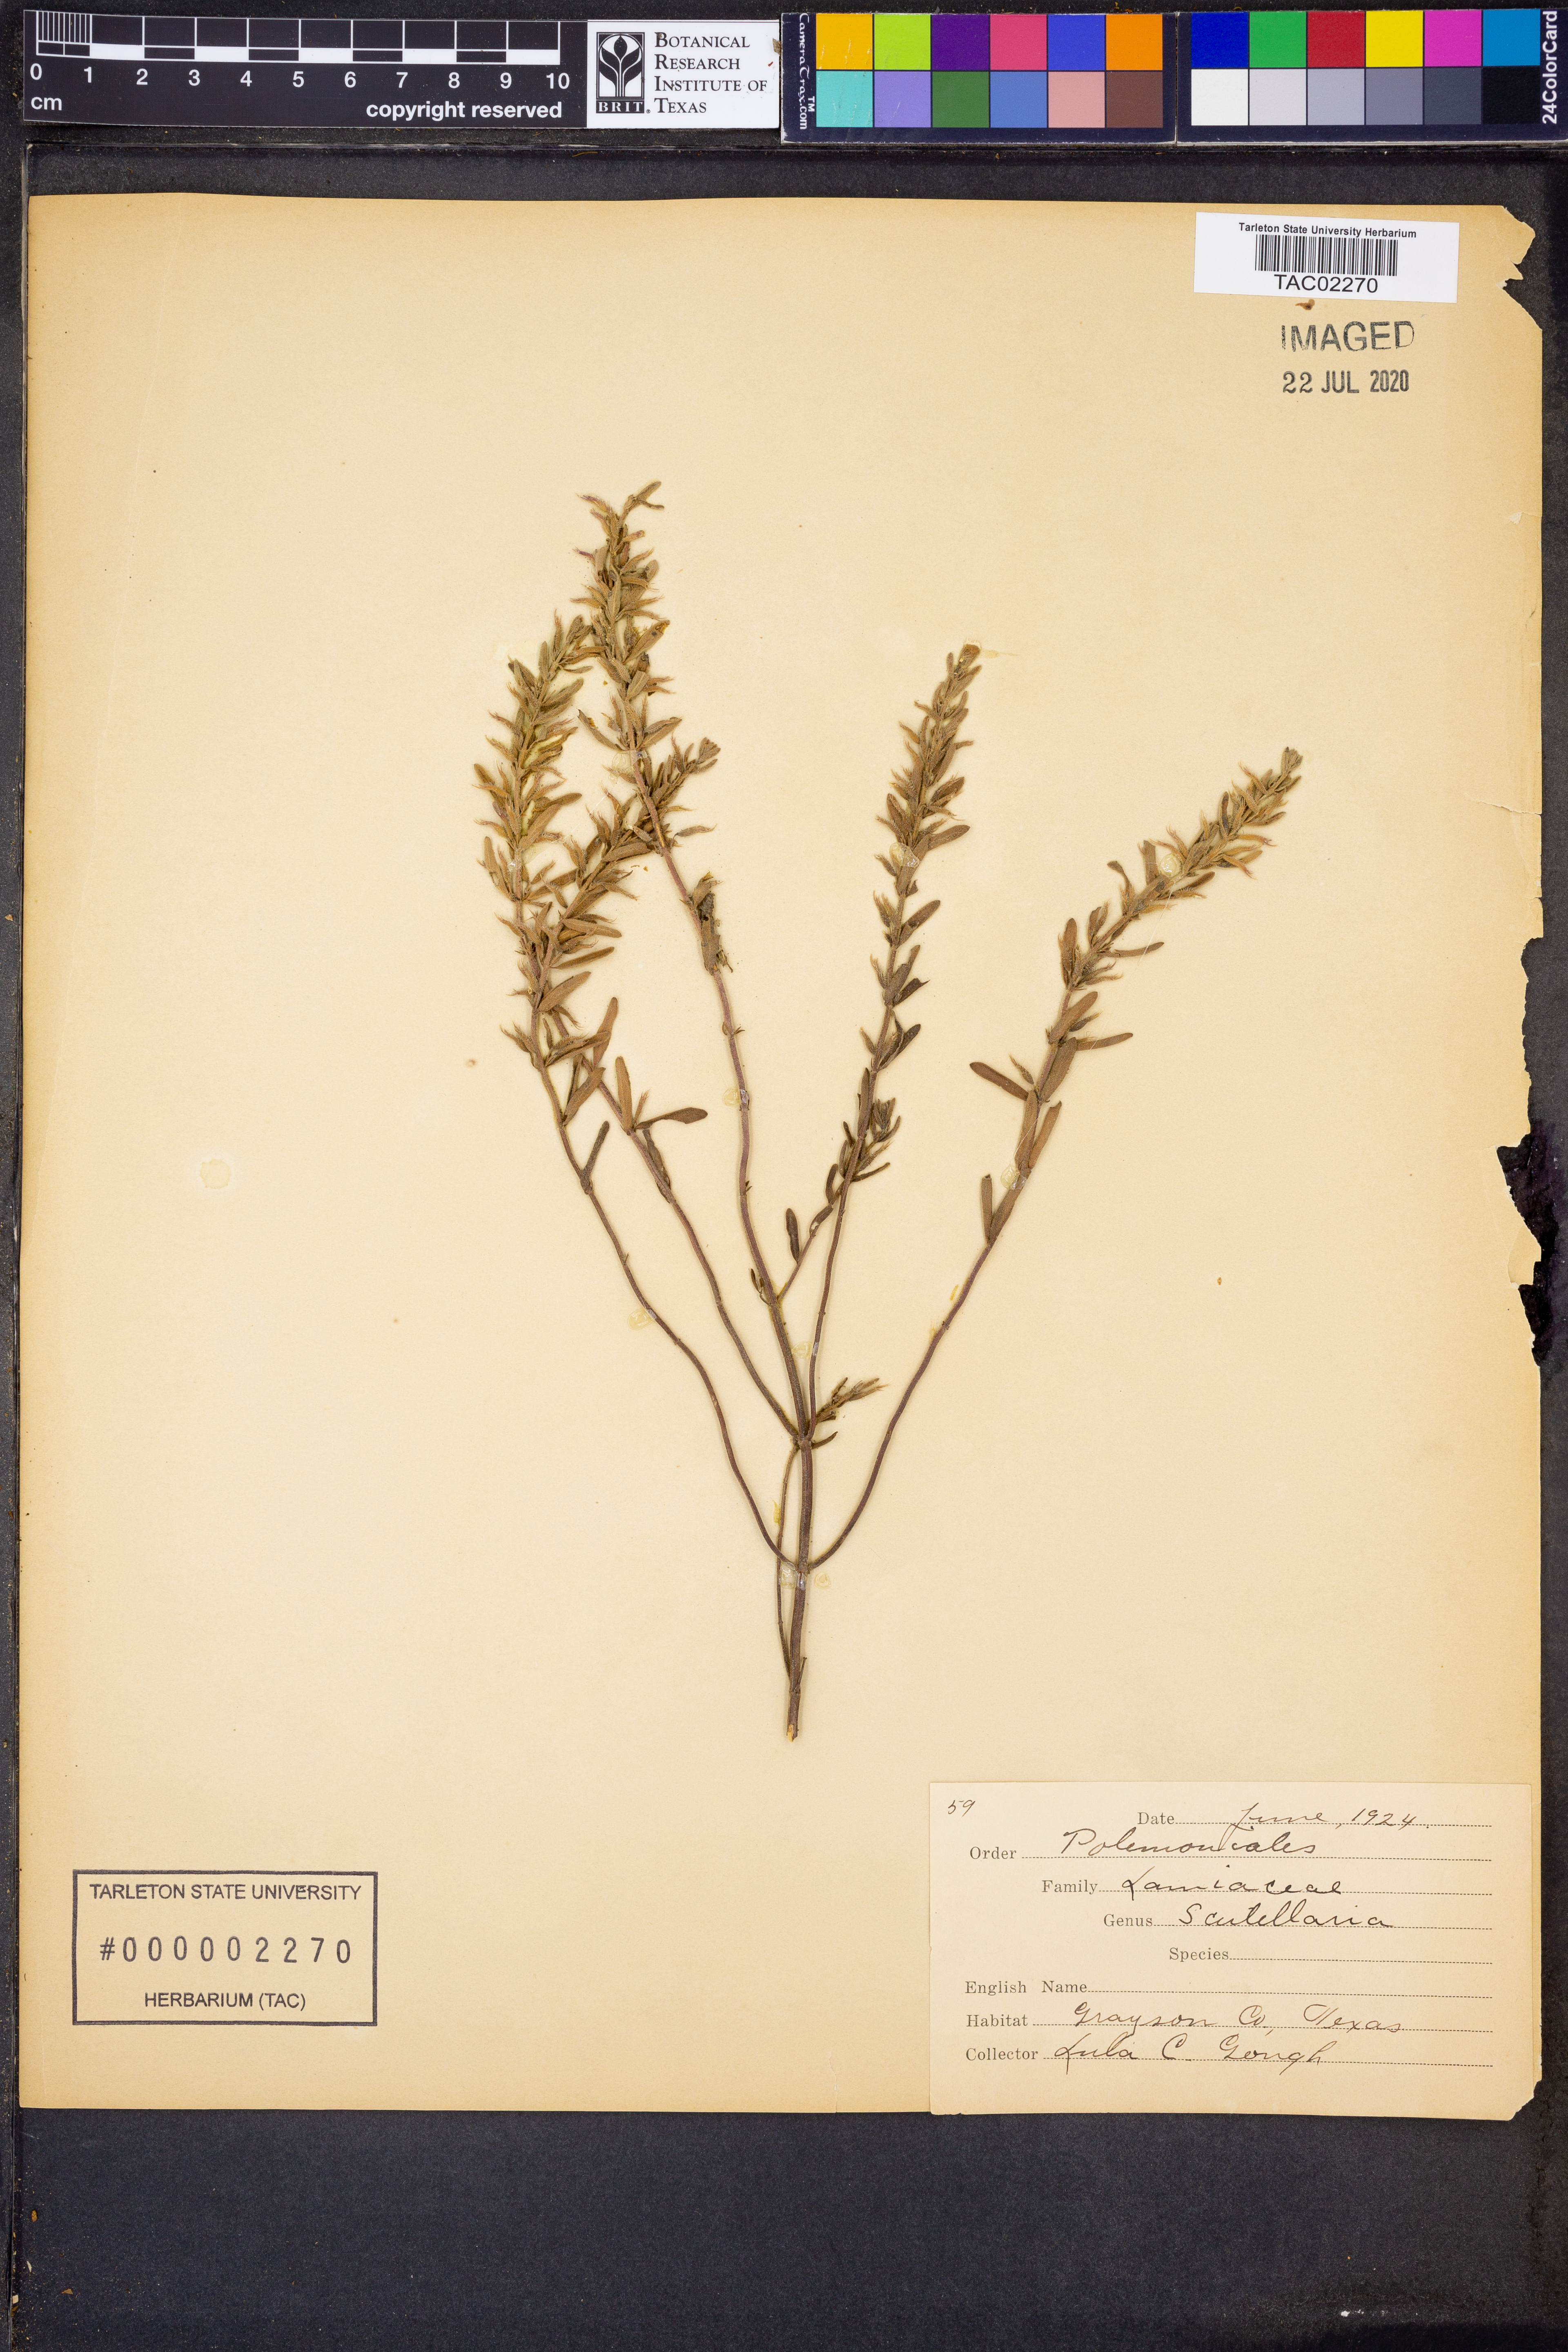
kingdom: Plantae
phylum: Tracheophyta
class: Magnoliopsida
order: Lamiales
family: Lamiaceae
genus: Scutellaria
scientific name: Scutellaria
